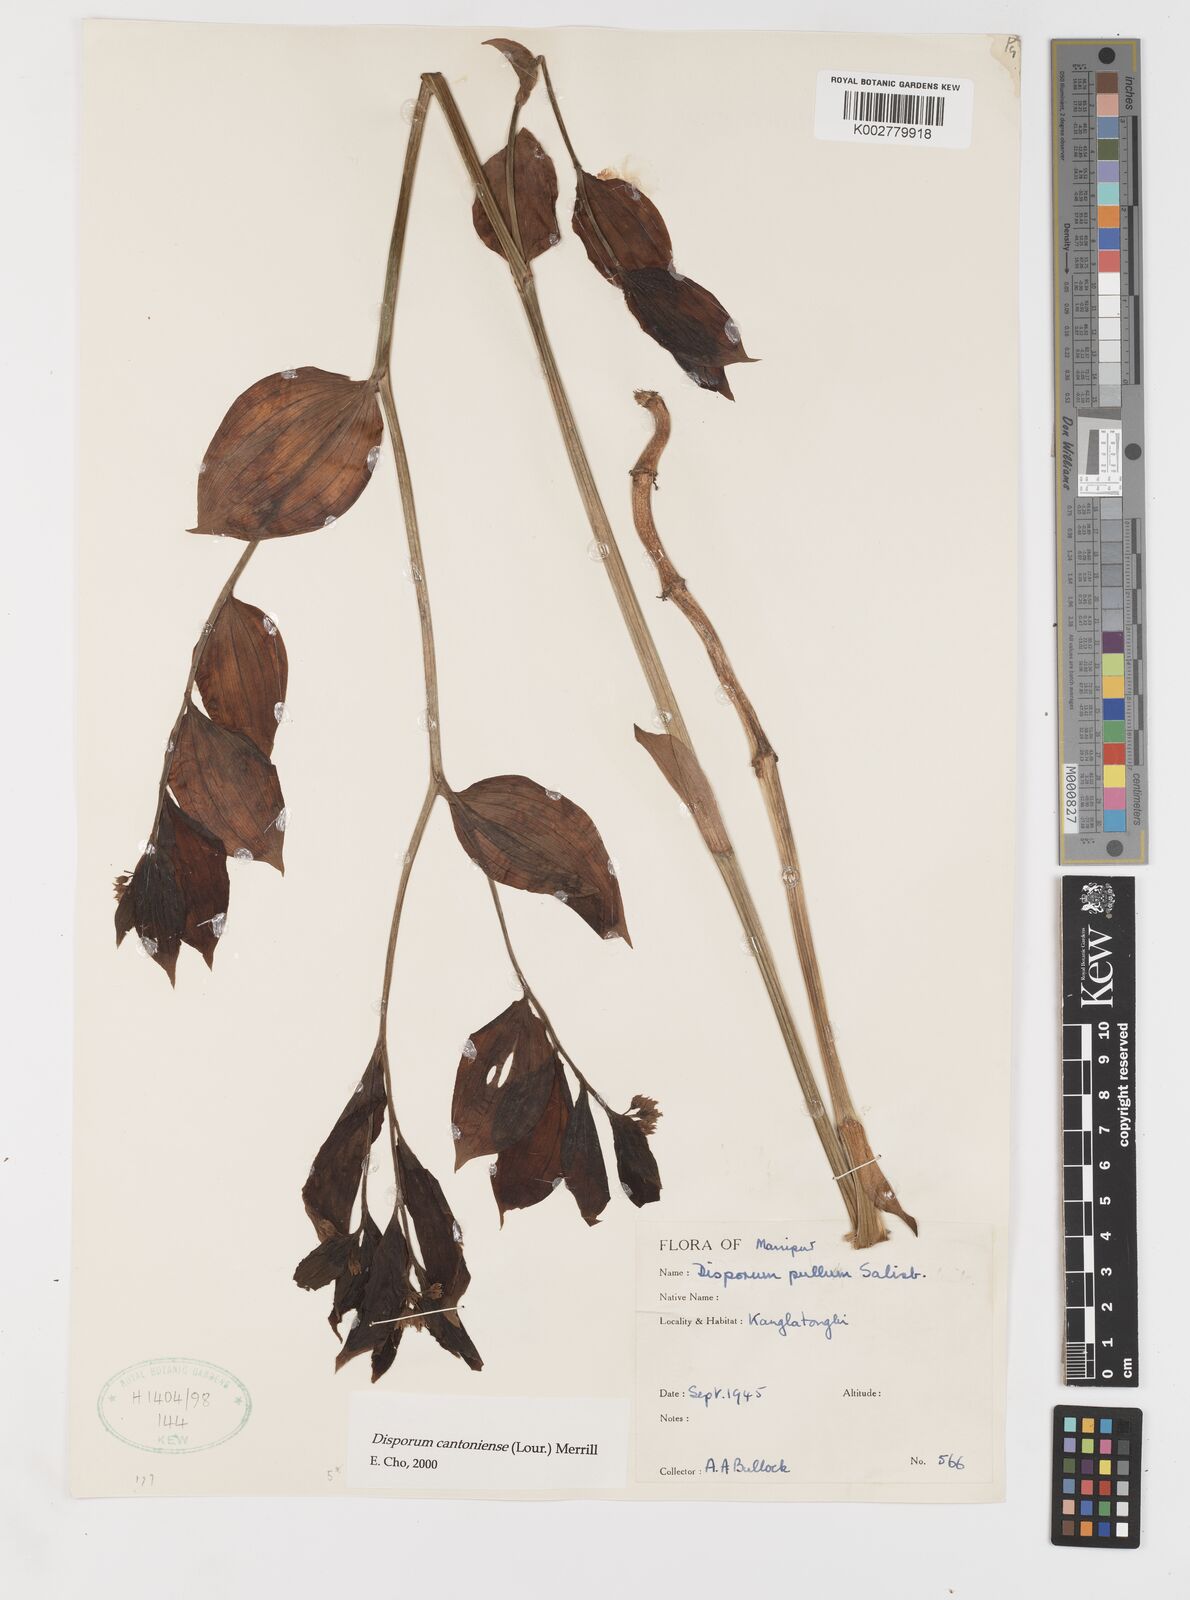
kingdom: Plantae
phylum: Tracheophyta
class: Liliopsida
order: Liliales
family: Colchicaceae
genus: Disporum
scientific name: Disporum cantoniense
